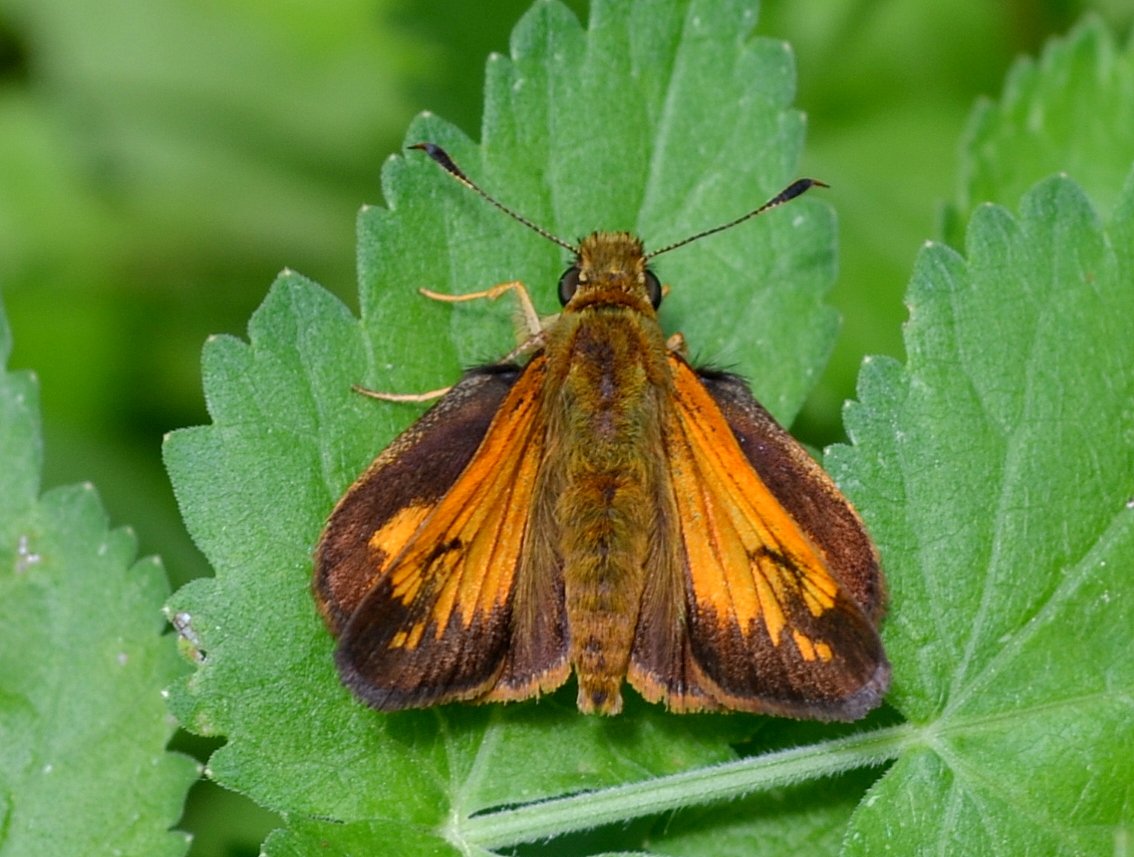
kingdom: Animalia
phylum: Arthropoda
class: Insecta
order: Lepidoptera
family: Hesperiidae
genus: Lon
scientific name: Lon hobomok
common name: Hobomok Skipper
